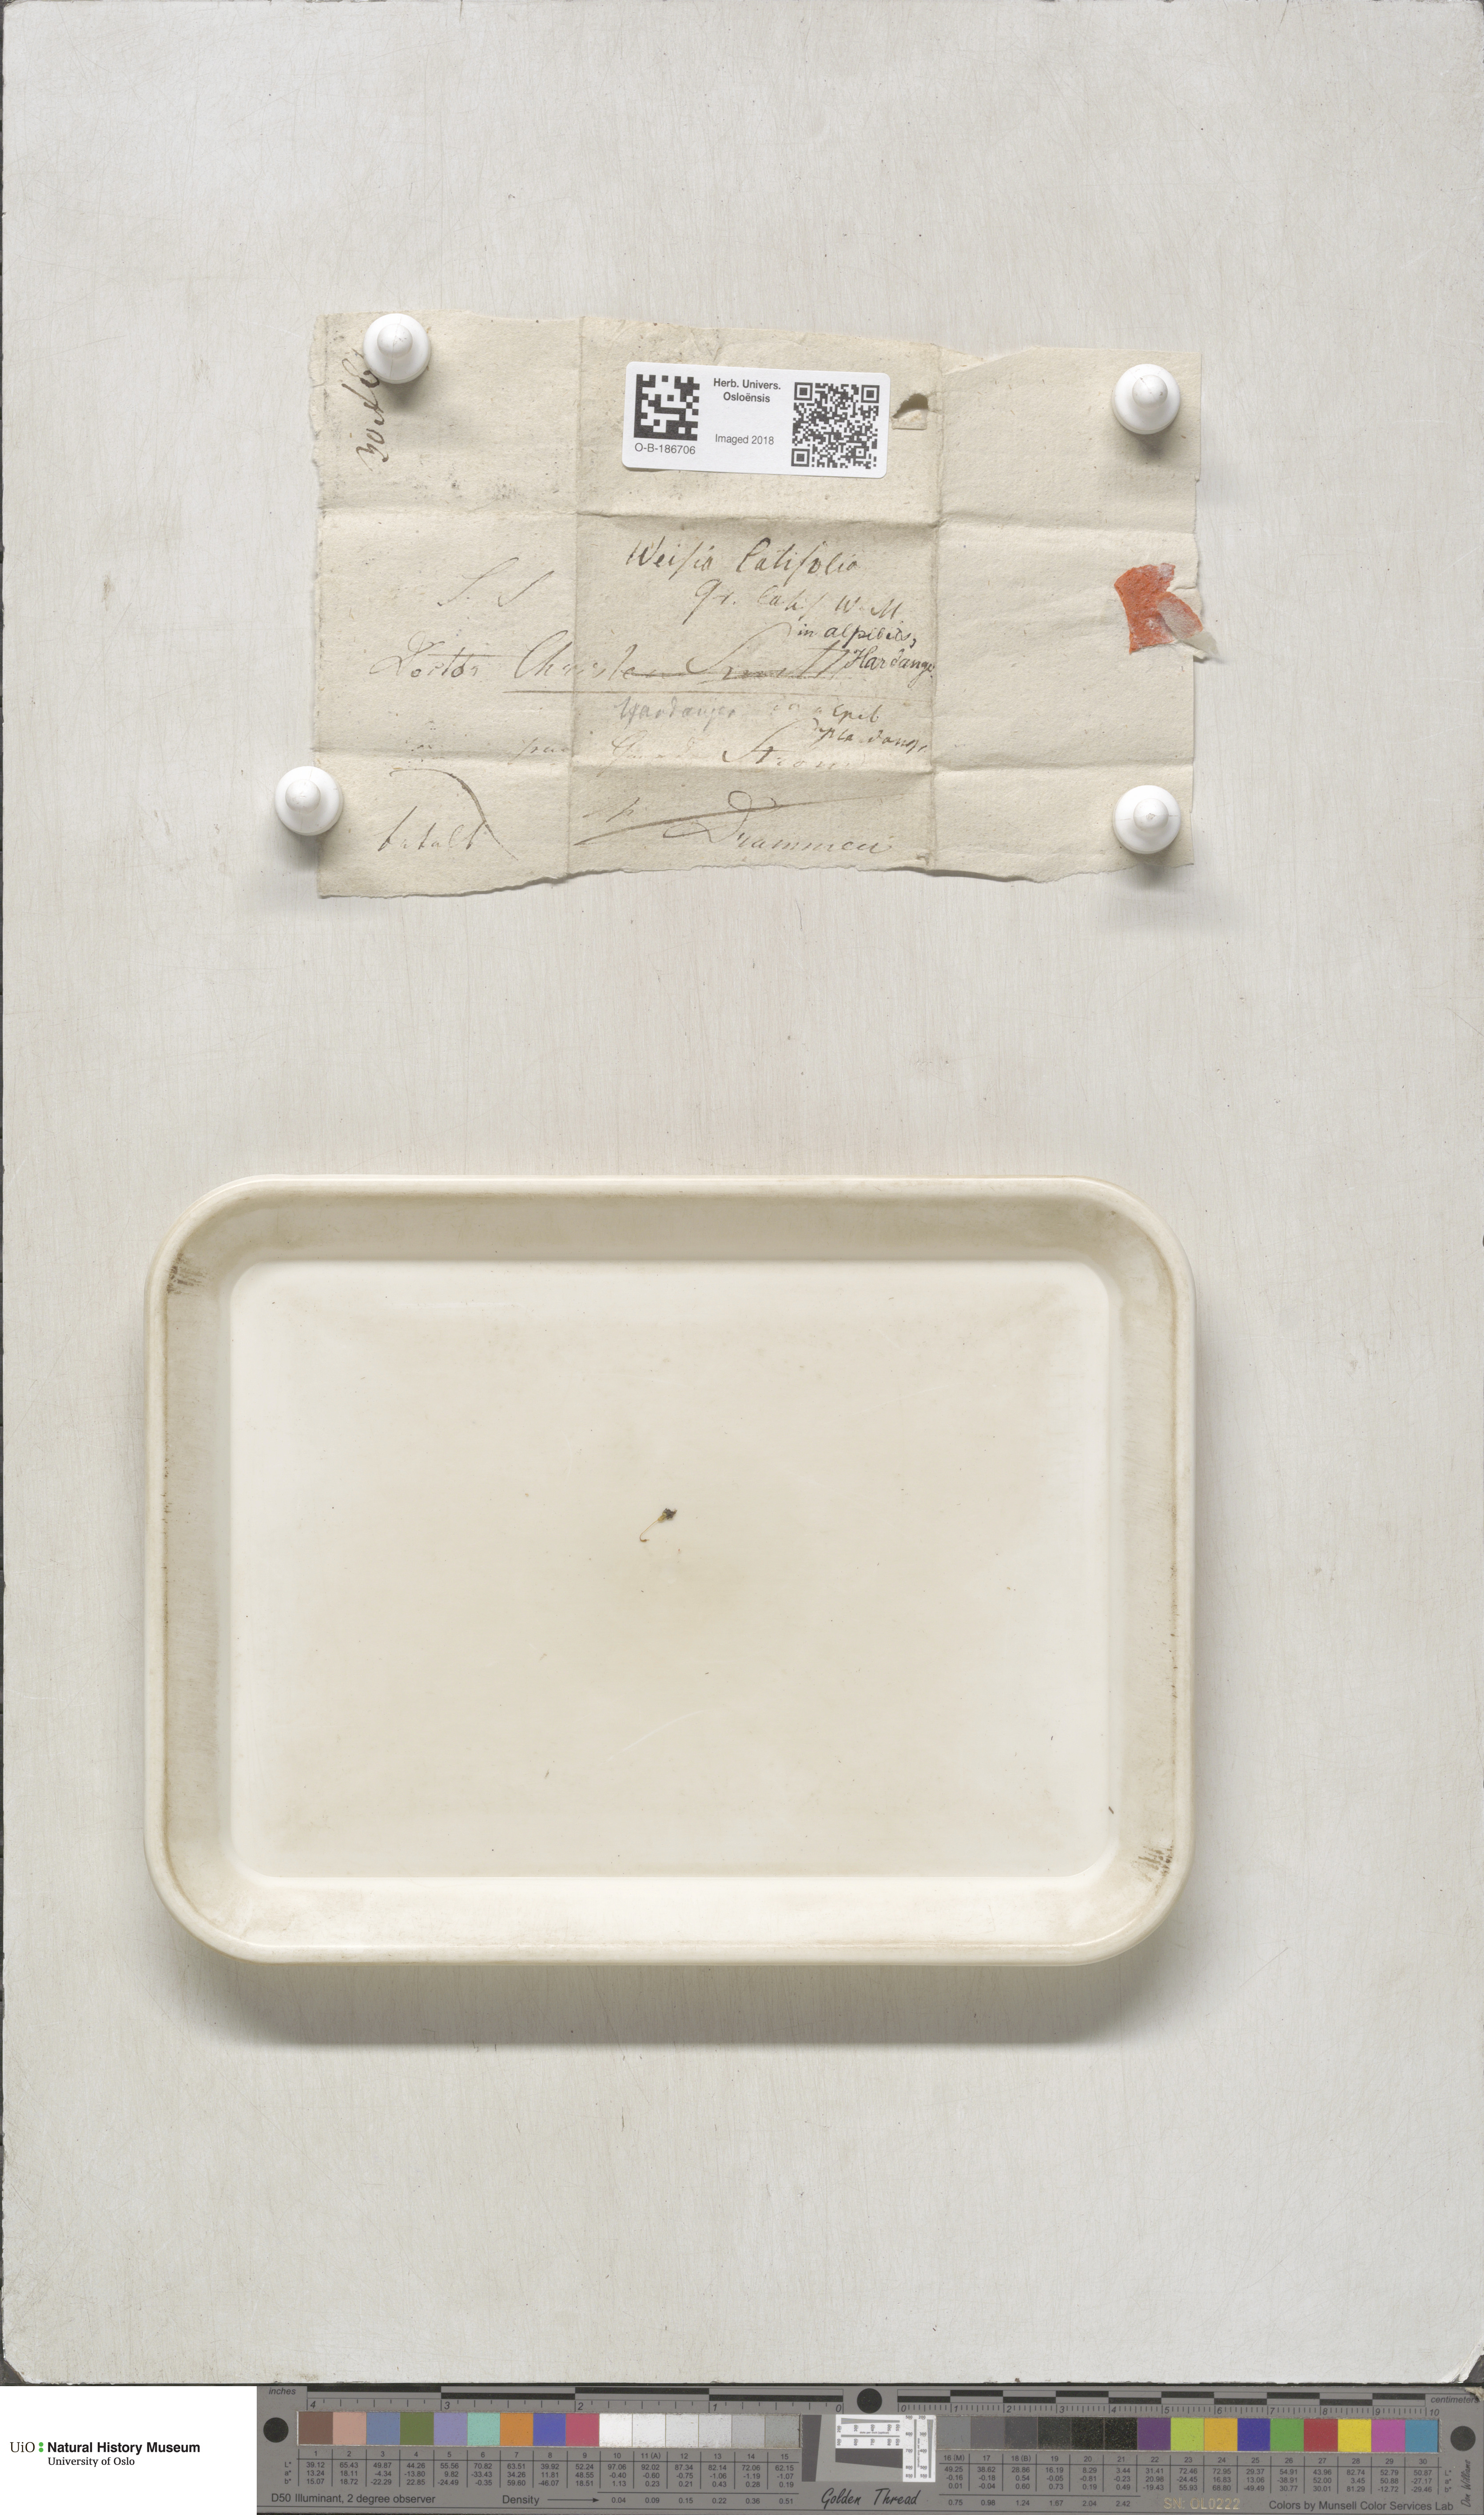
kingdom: Plantae
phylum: Bryophyta
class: Bryopsida
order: Pottiales
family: Pottiaceae
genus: Stegonia
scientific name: Stegonia latifolia
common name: Hood-leaved screw-moss
